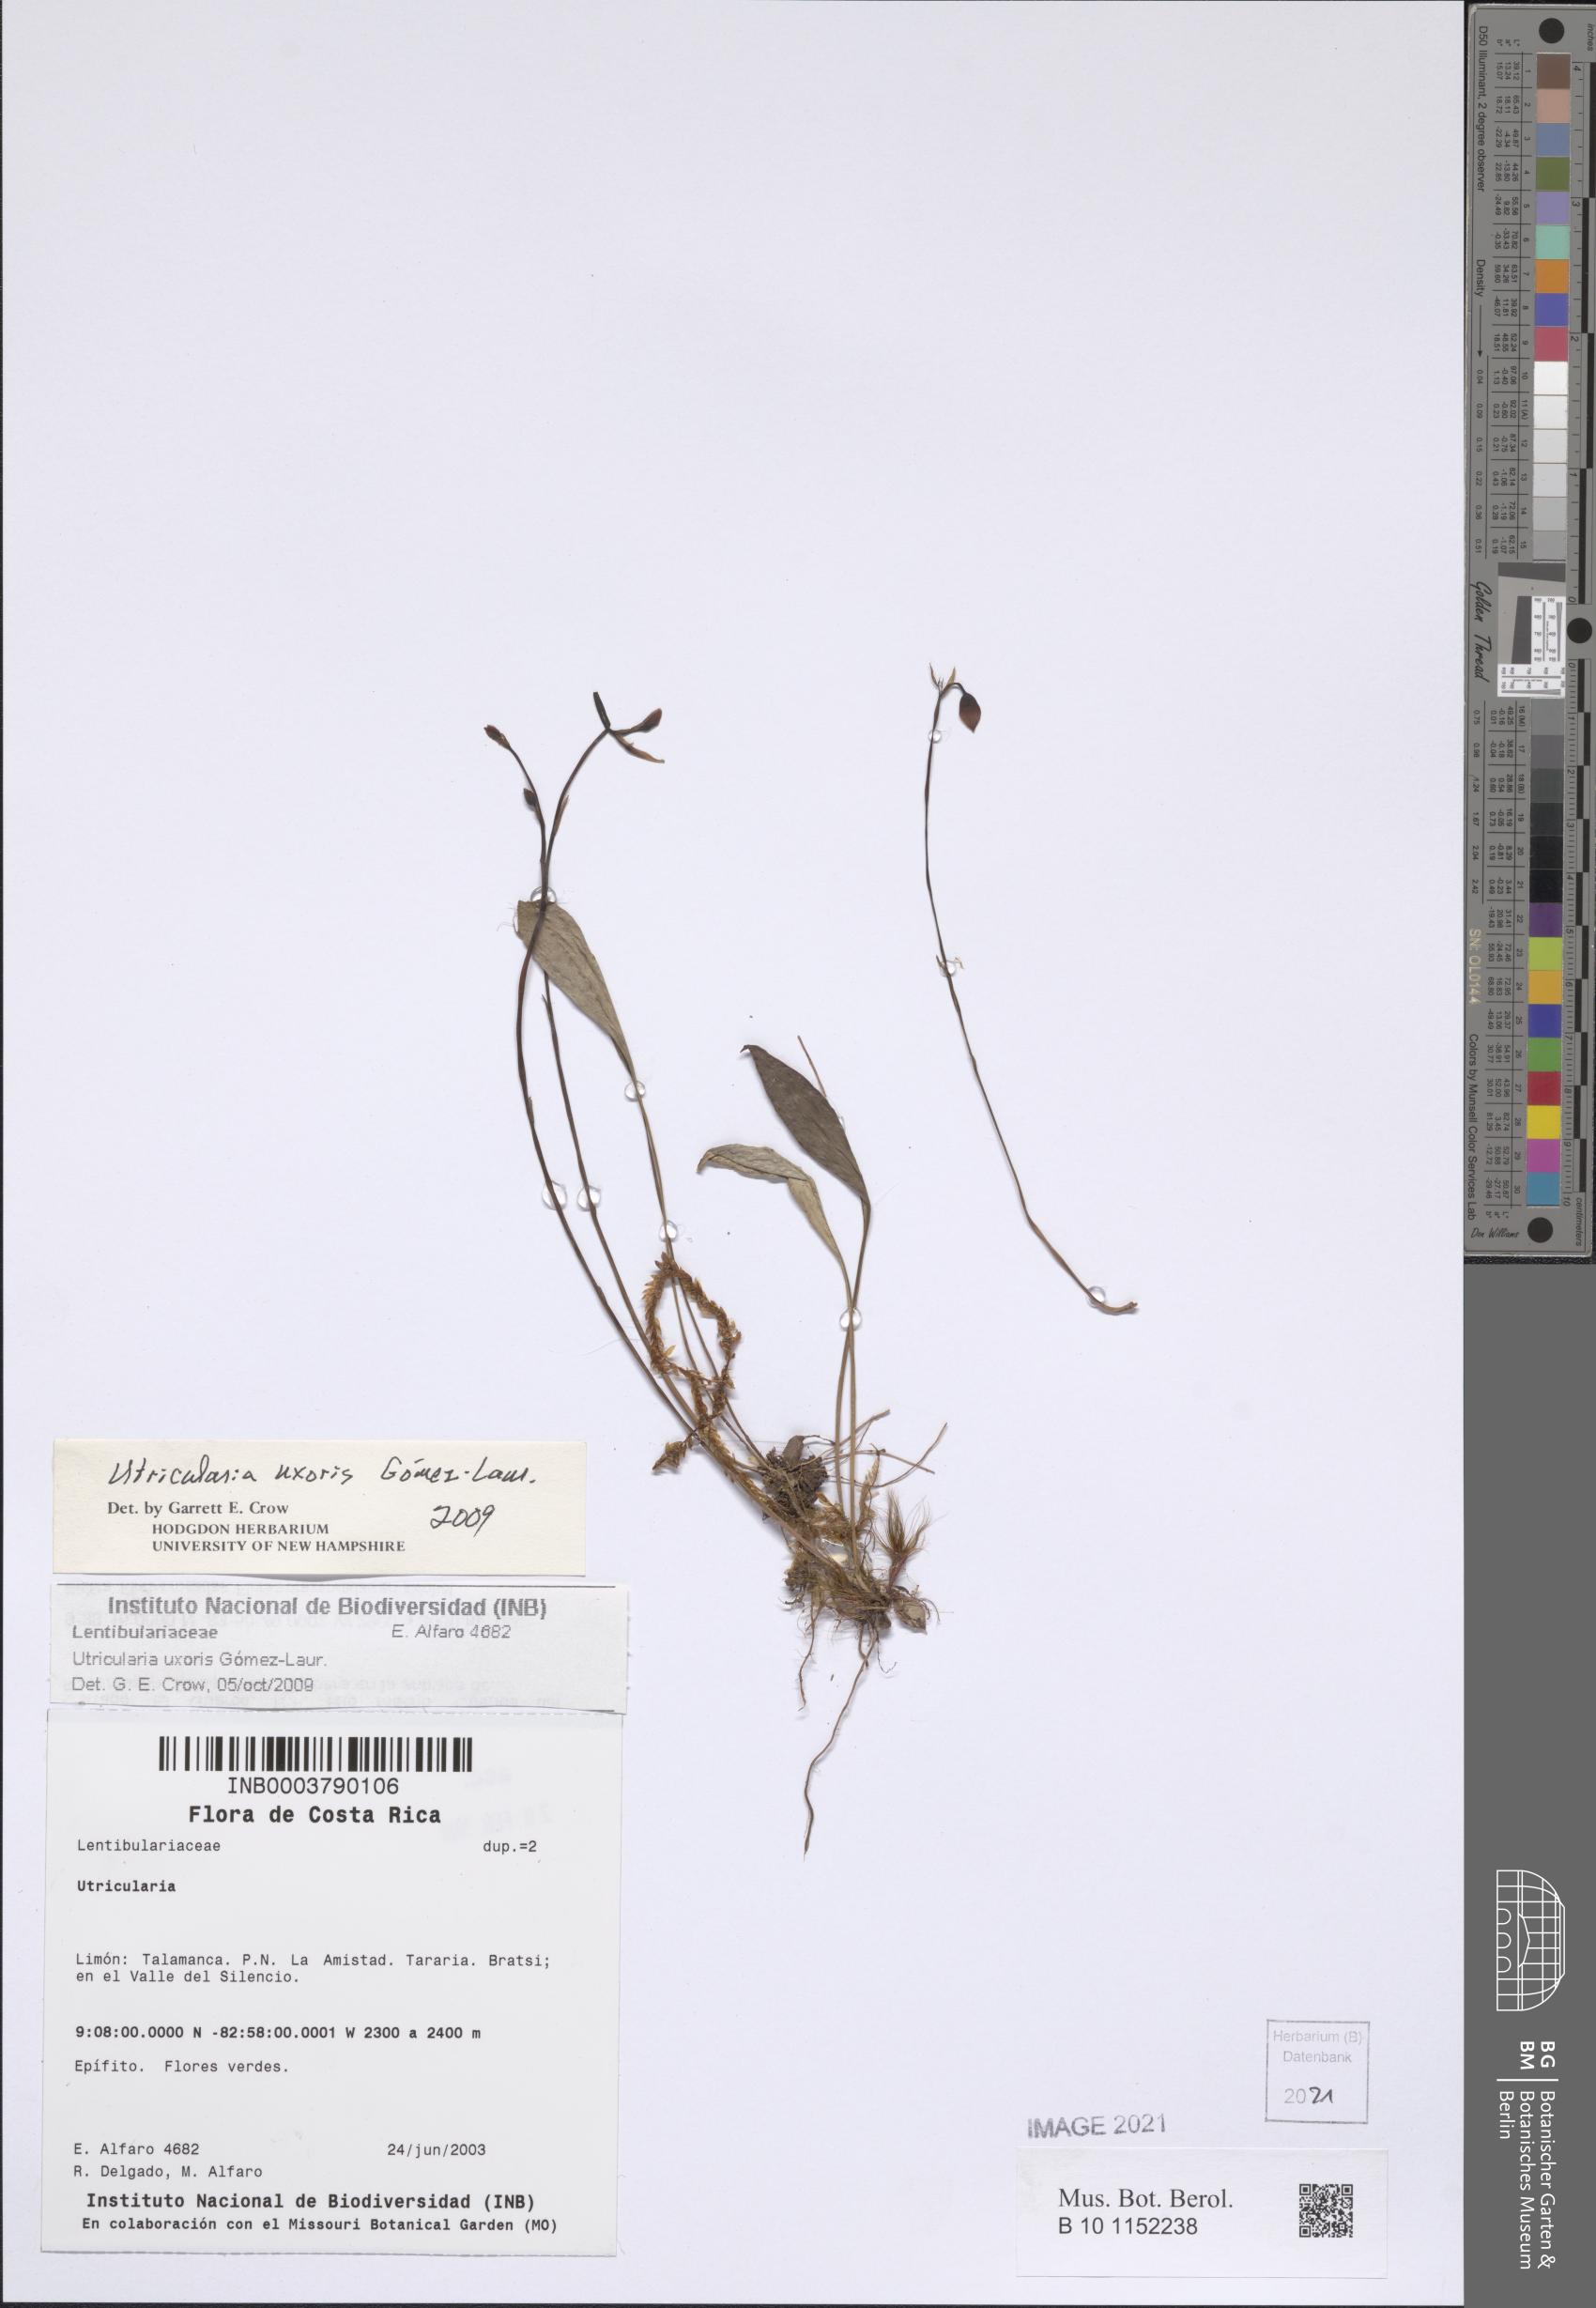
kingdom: Plantae
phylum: Tracheophyta
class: Magnoliopsida
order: Lamiales
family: Lentibulariaceae
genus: Utricularia
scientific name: Utricularia jamesoniana
